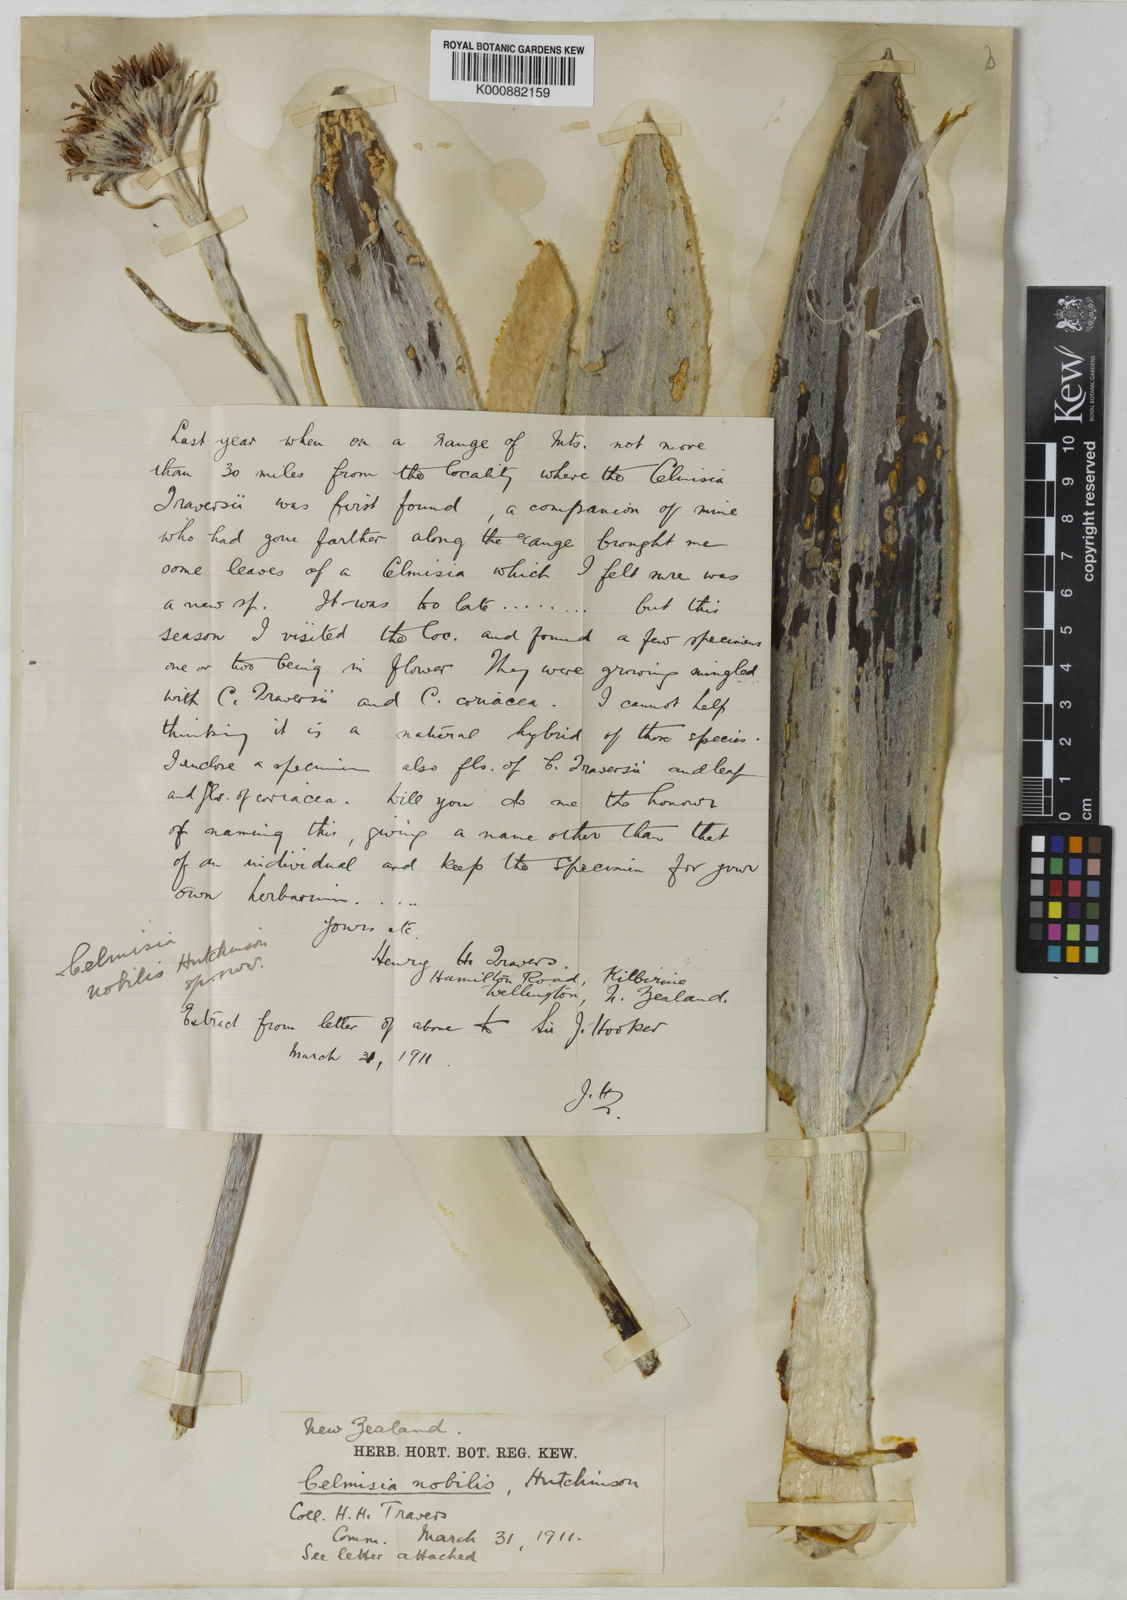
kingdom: Plantae
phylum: Tracheophyta
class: Magnoliopsida
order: Asterales
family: Asteraceae
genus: Celmisia
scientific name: Celmisia coriacea
